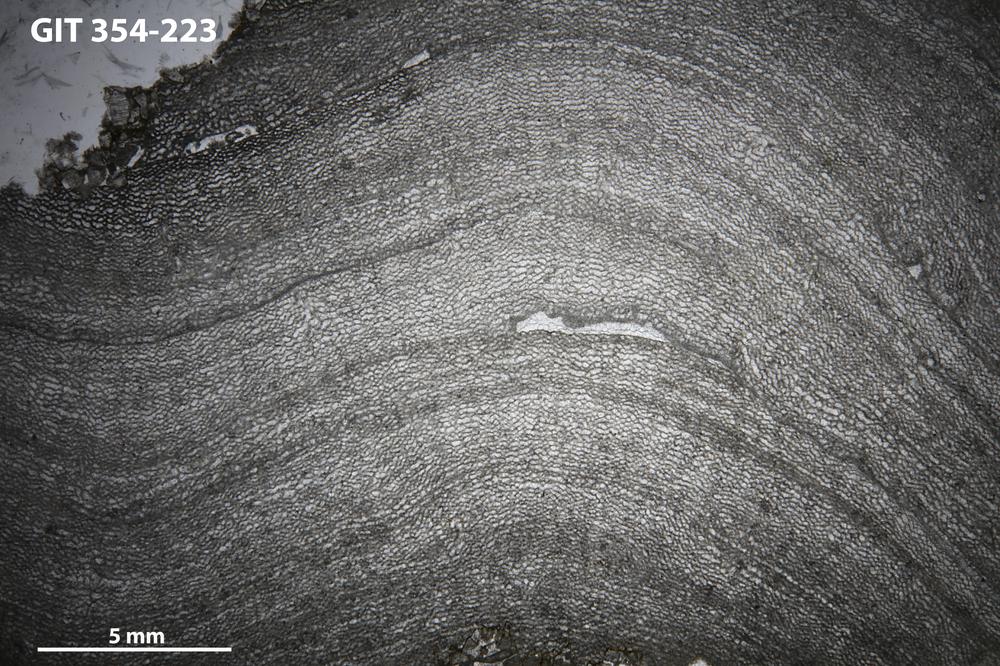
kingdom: Animalia
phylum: Porifera
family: Ecclimadictyidae
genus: Ecclimadictyon
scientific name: Ecclimadictyon macrotuberculatum
